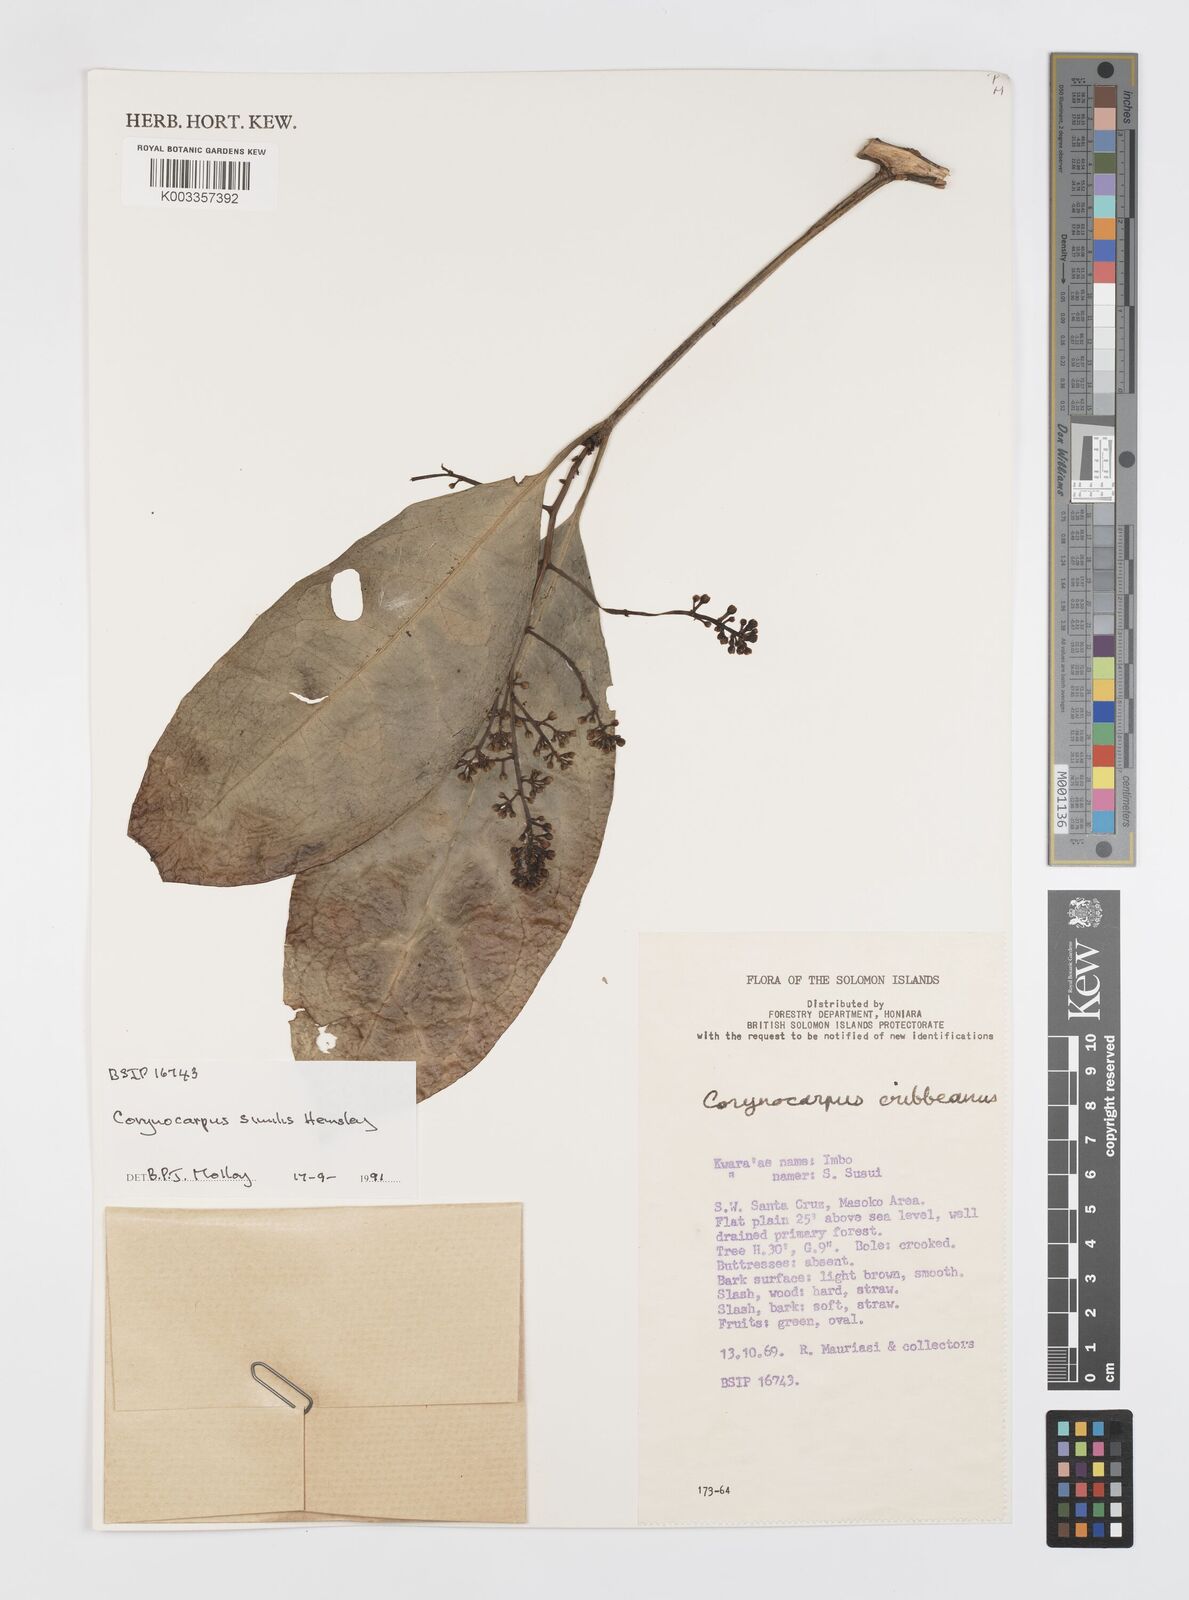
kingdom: Plantae
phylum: Tracheophyta
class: Magnoliopsida
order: Cucurbitales
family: Corynocarpaceae
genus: Corynocarpus
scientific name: Corynocarpus similis
